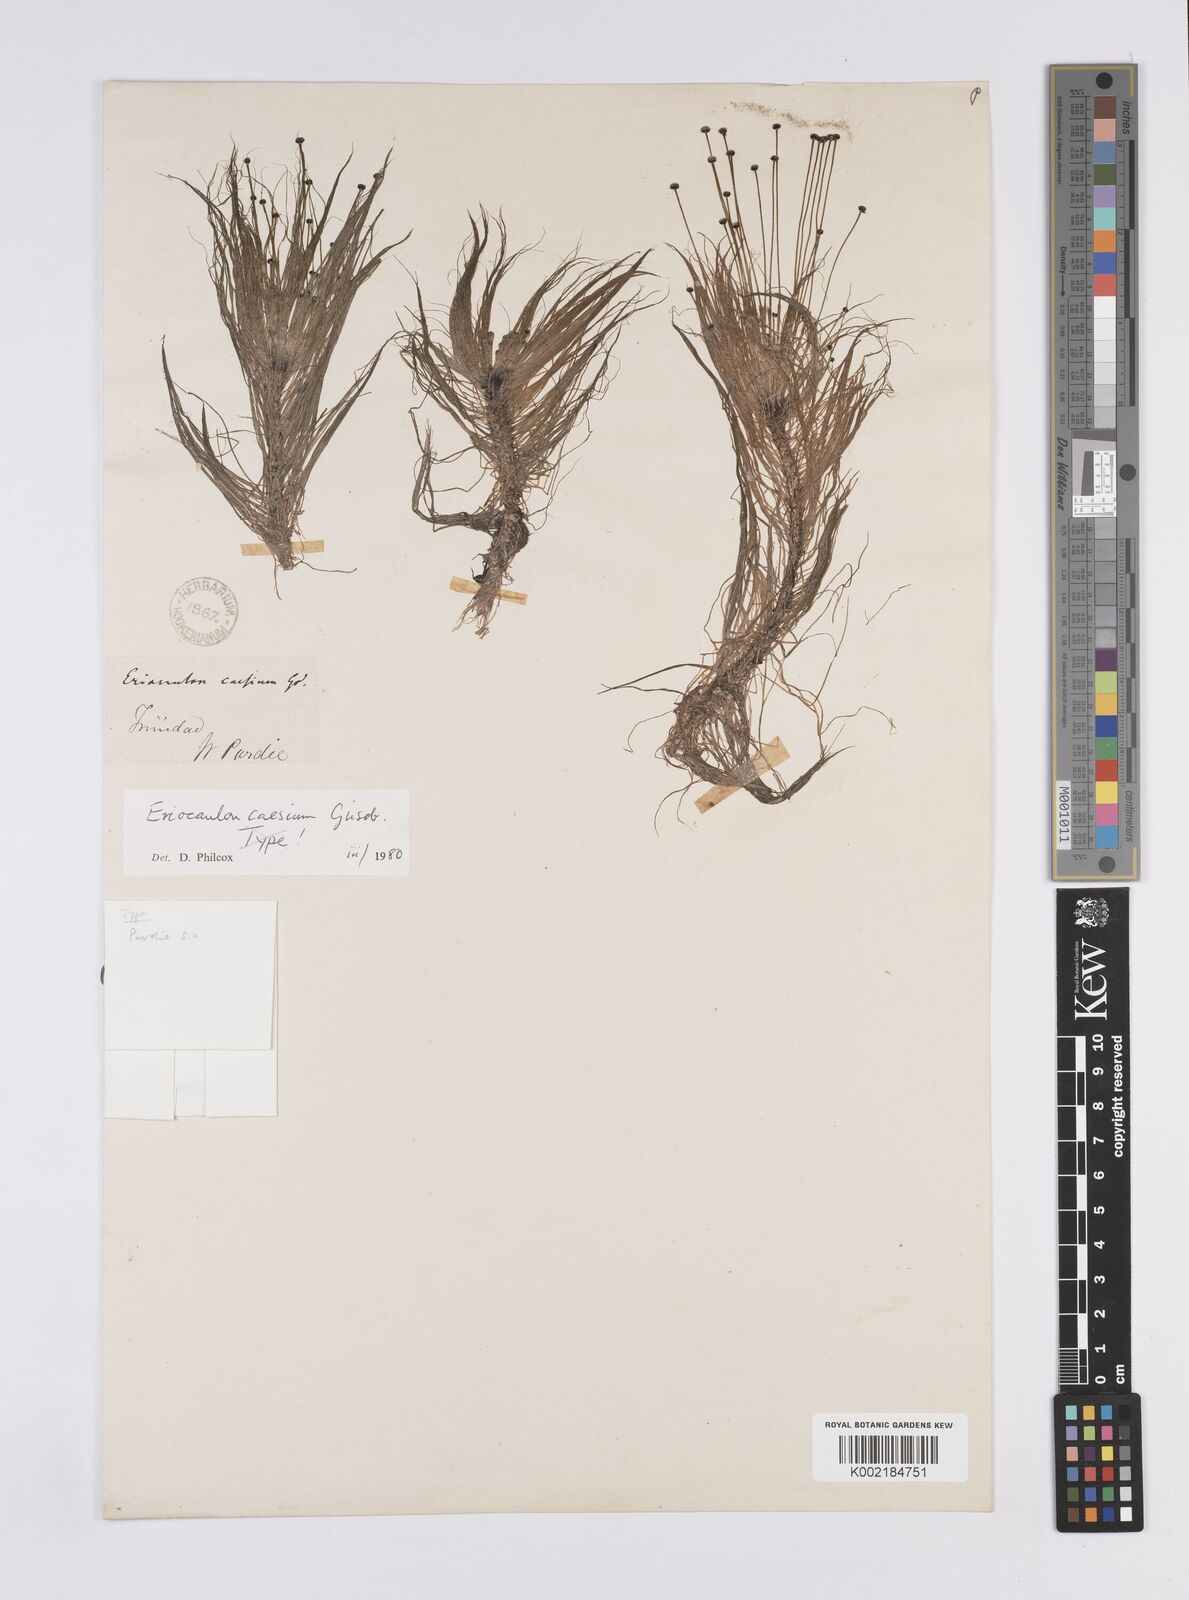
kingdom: Plantae
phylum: Tracheophyta
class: Liliopsida
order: Poales
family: Eriocaulaceae
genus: Eriocaulon
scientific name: Eriocaulon caesium
